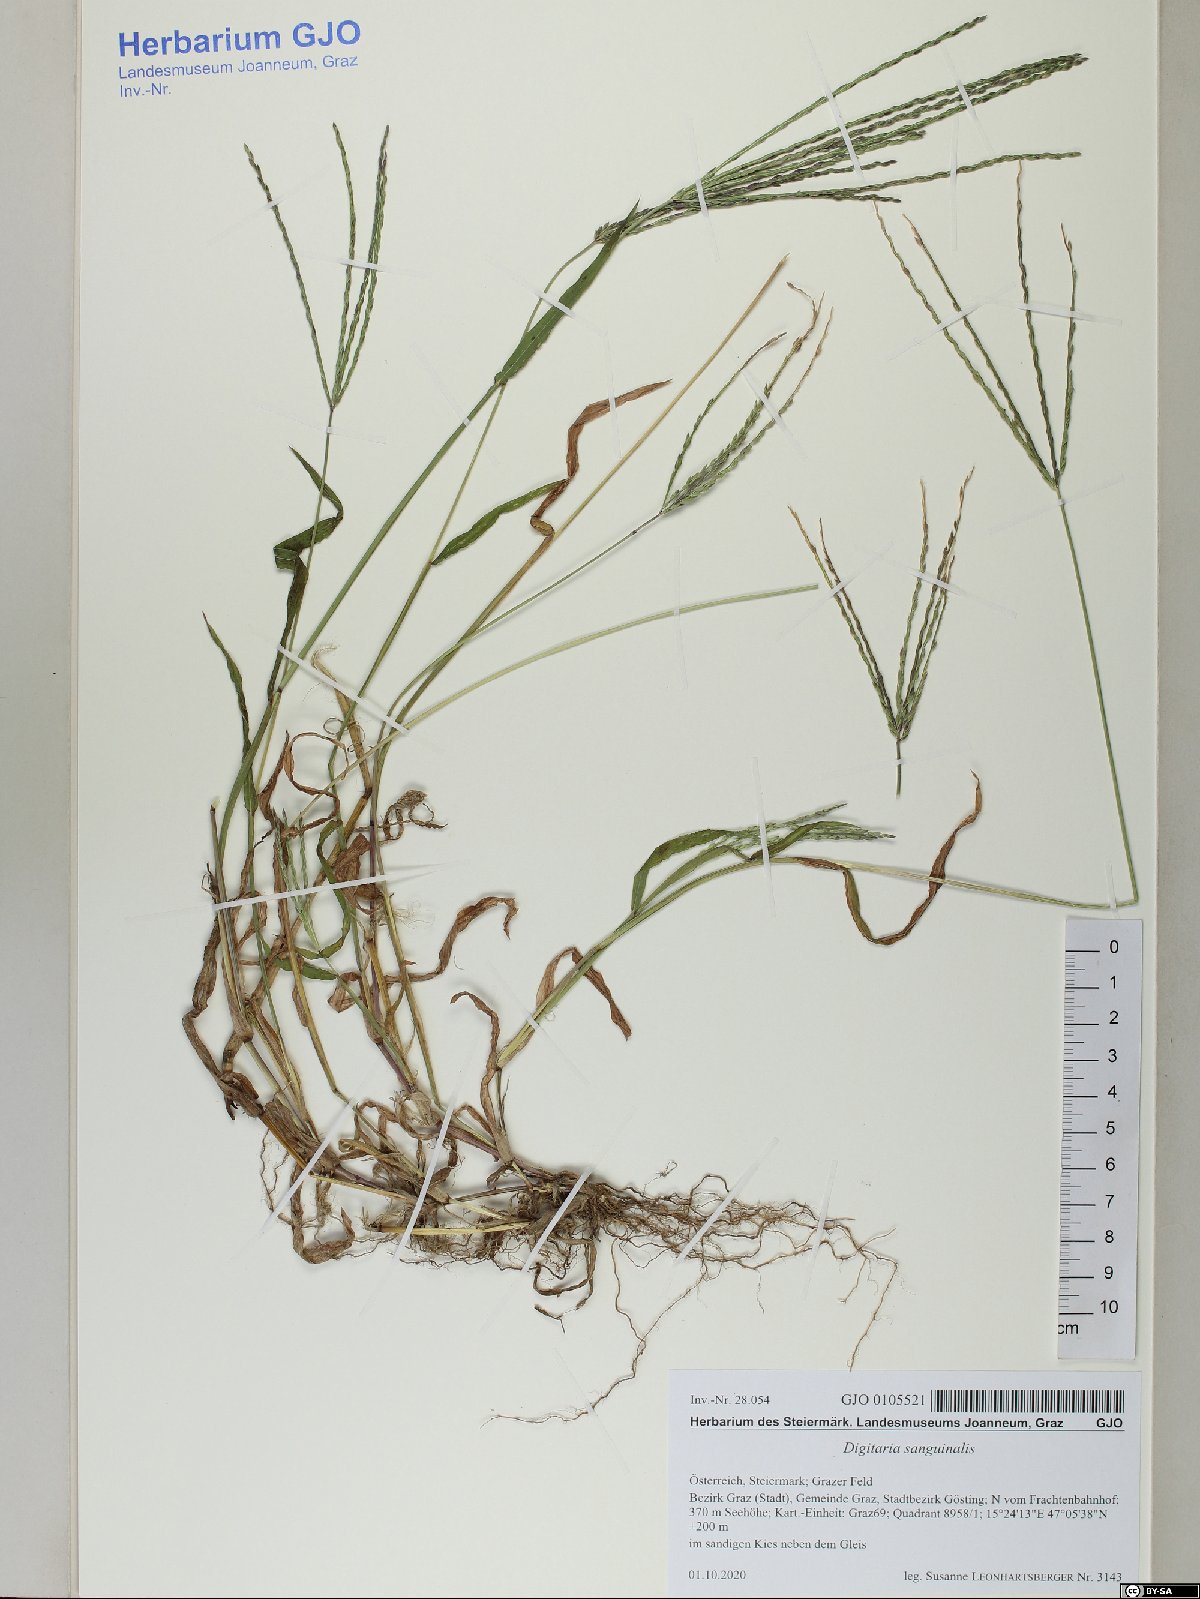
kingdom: Plantae
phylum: Tracheophyta
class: Liliopsida
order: Poales
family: Poaceae
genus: Digitaria
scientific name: Digitaria sanguinalis
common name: Hairy crabgrass
